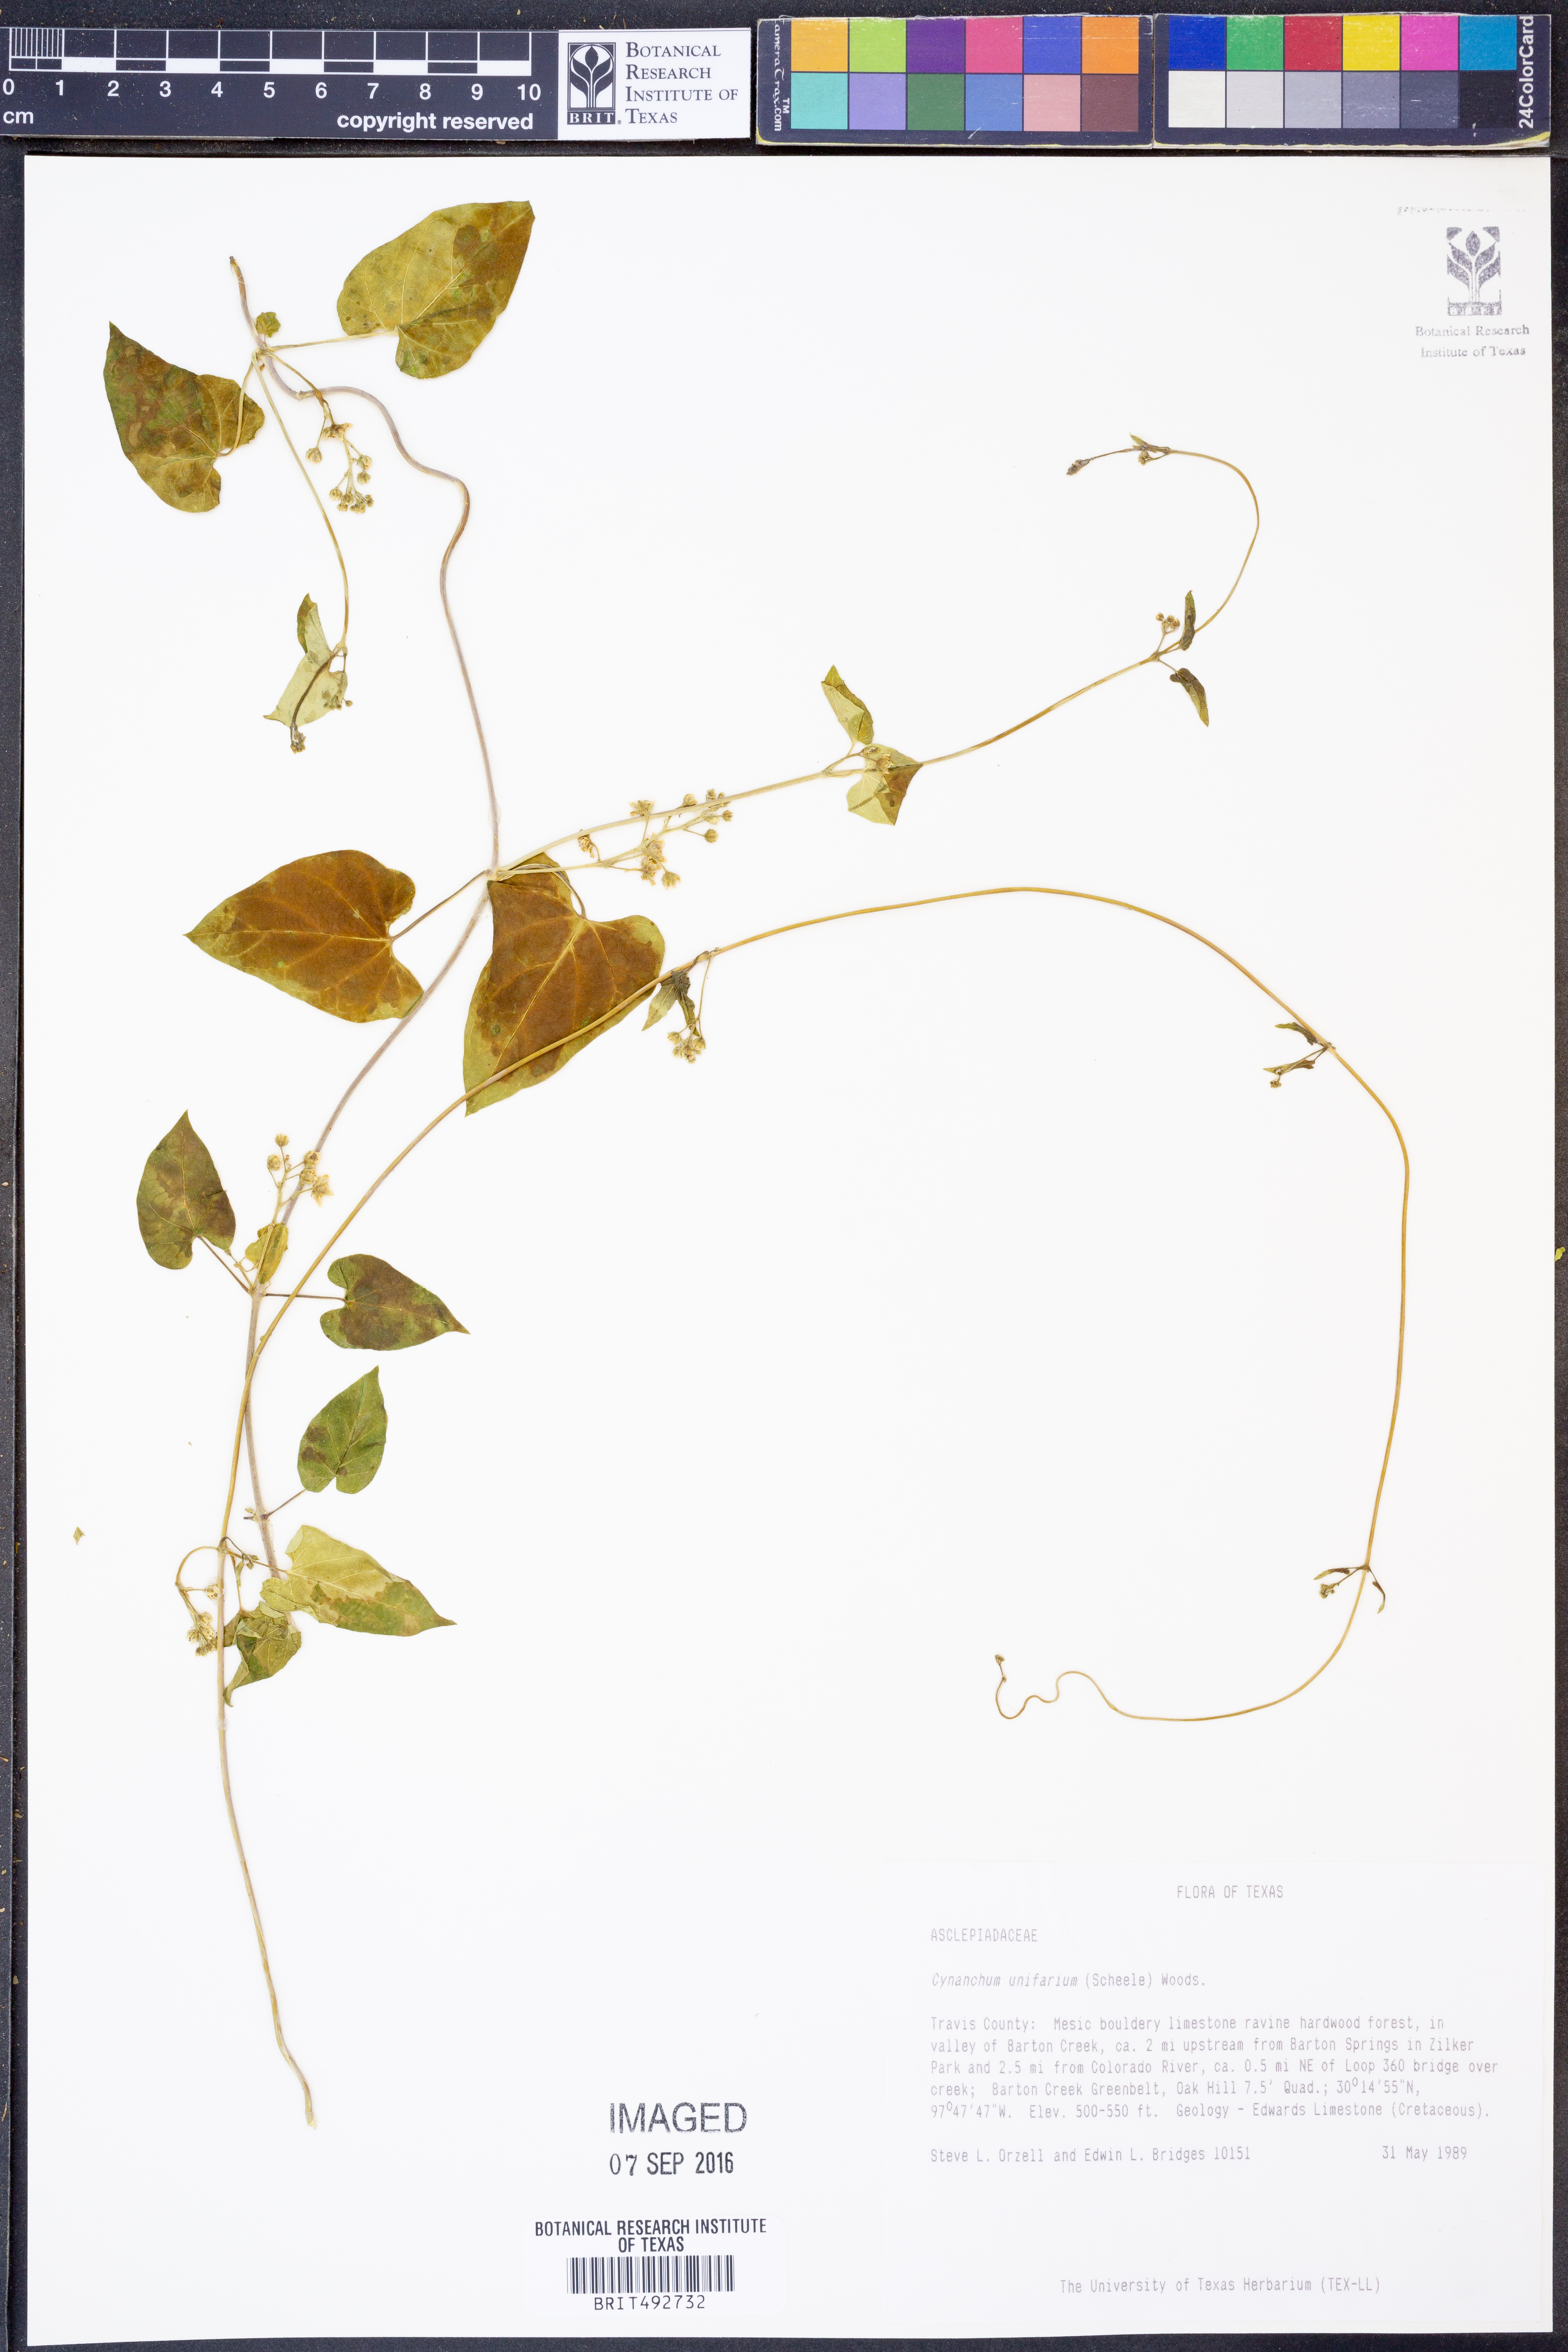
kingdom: Plantae
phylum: Tracheophyta
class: Magnoliopsida
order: Gentianales
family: Apocynaceae
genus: Cynanchum
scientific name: Cynanchum racemosum
